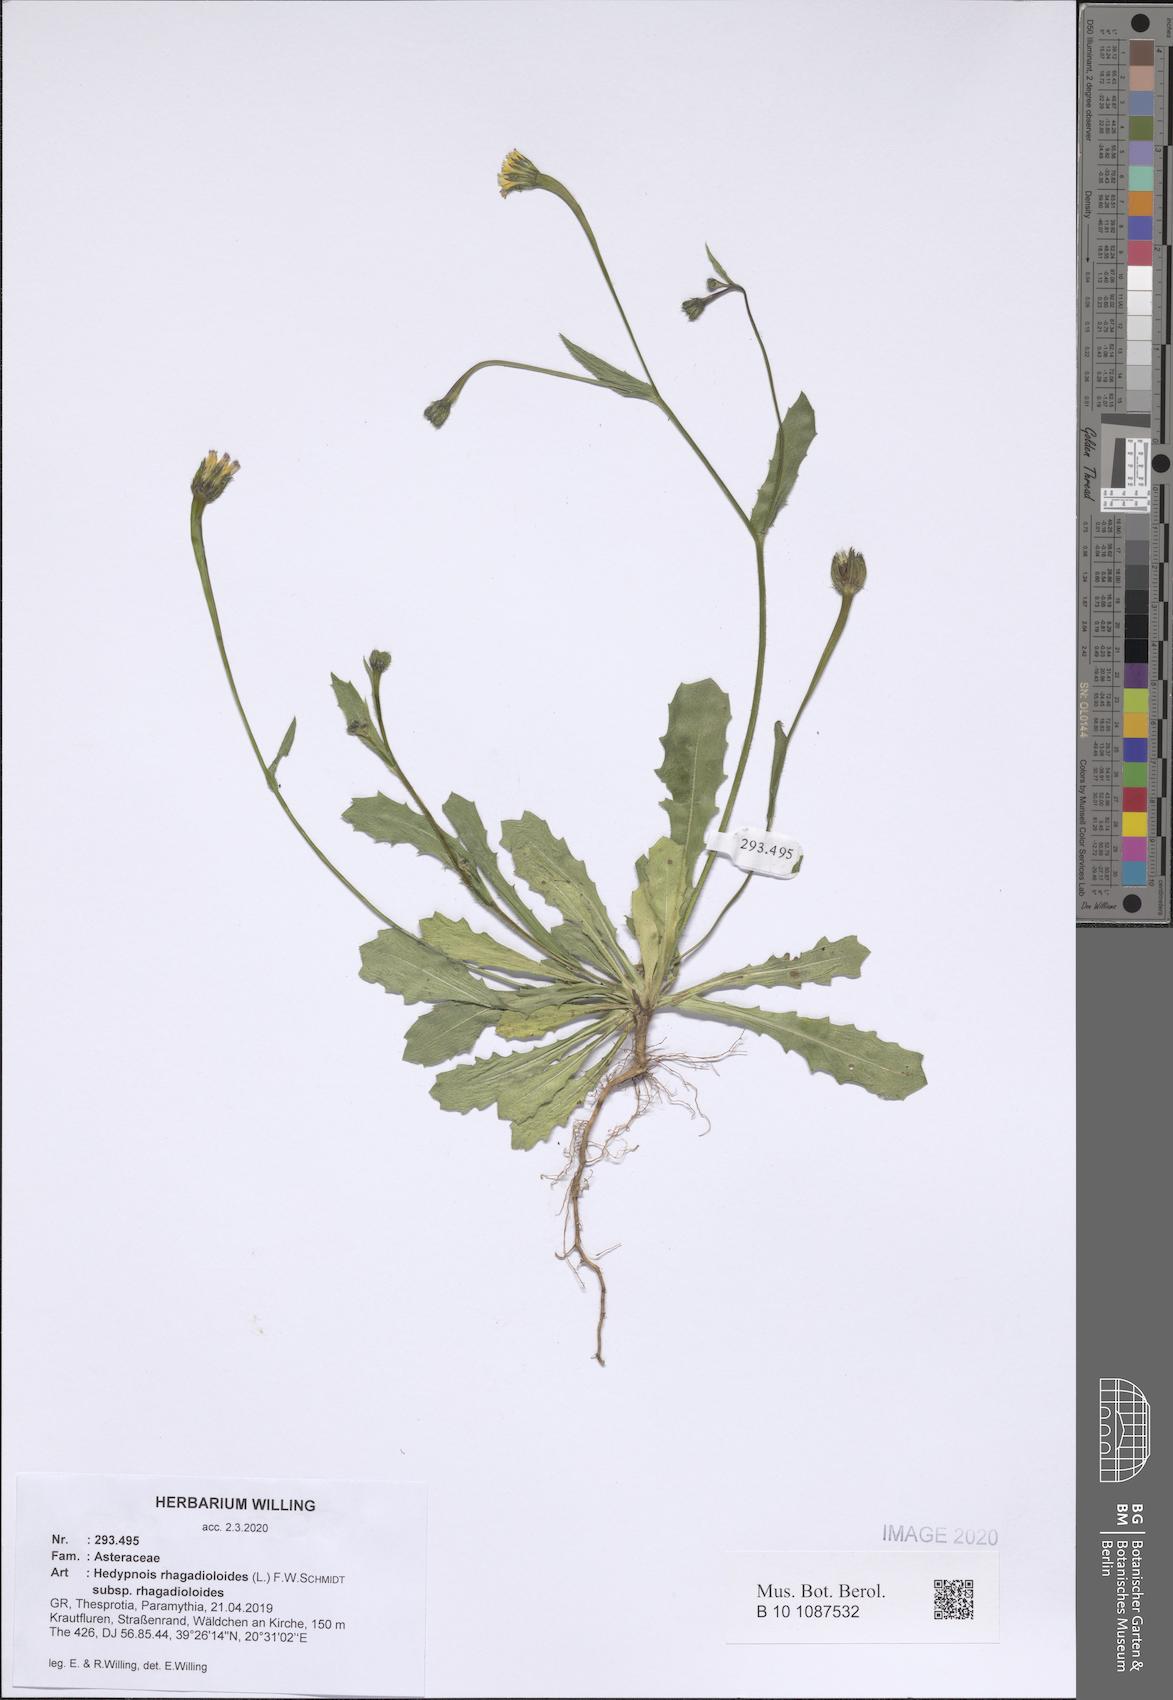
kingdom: Plantae
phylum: Tracheophyta
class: Magnoliopsida
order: Asterales
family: Asteraceae
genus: Hedypnois
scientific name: Hedypnois rhagadioloides
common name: Cretan weed
